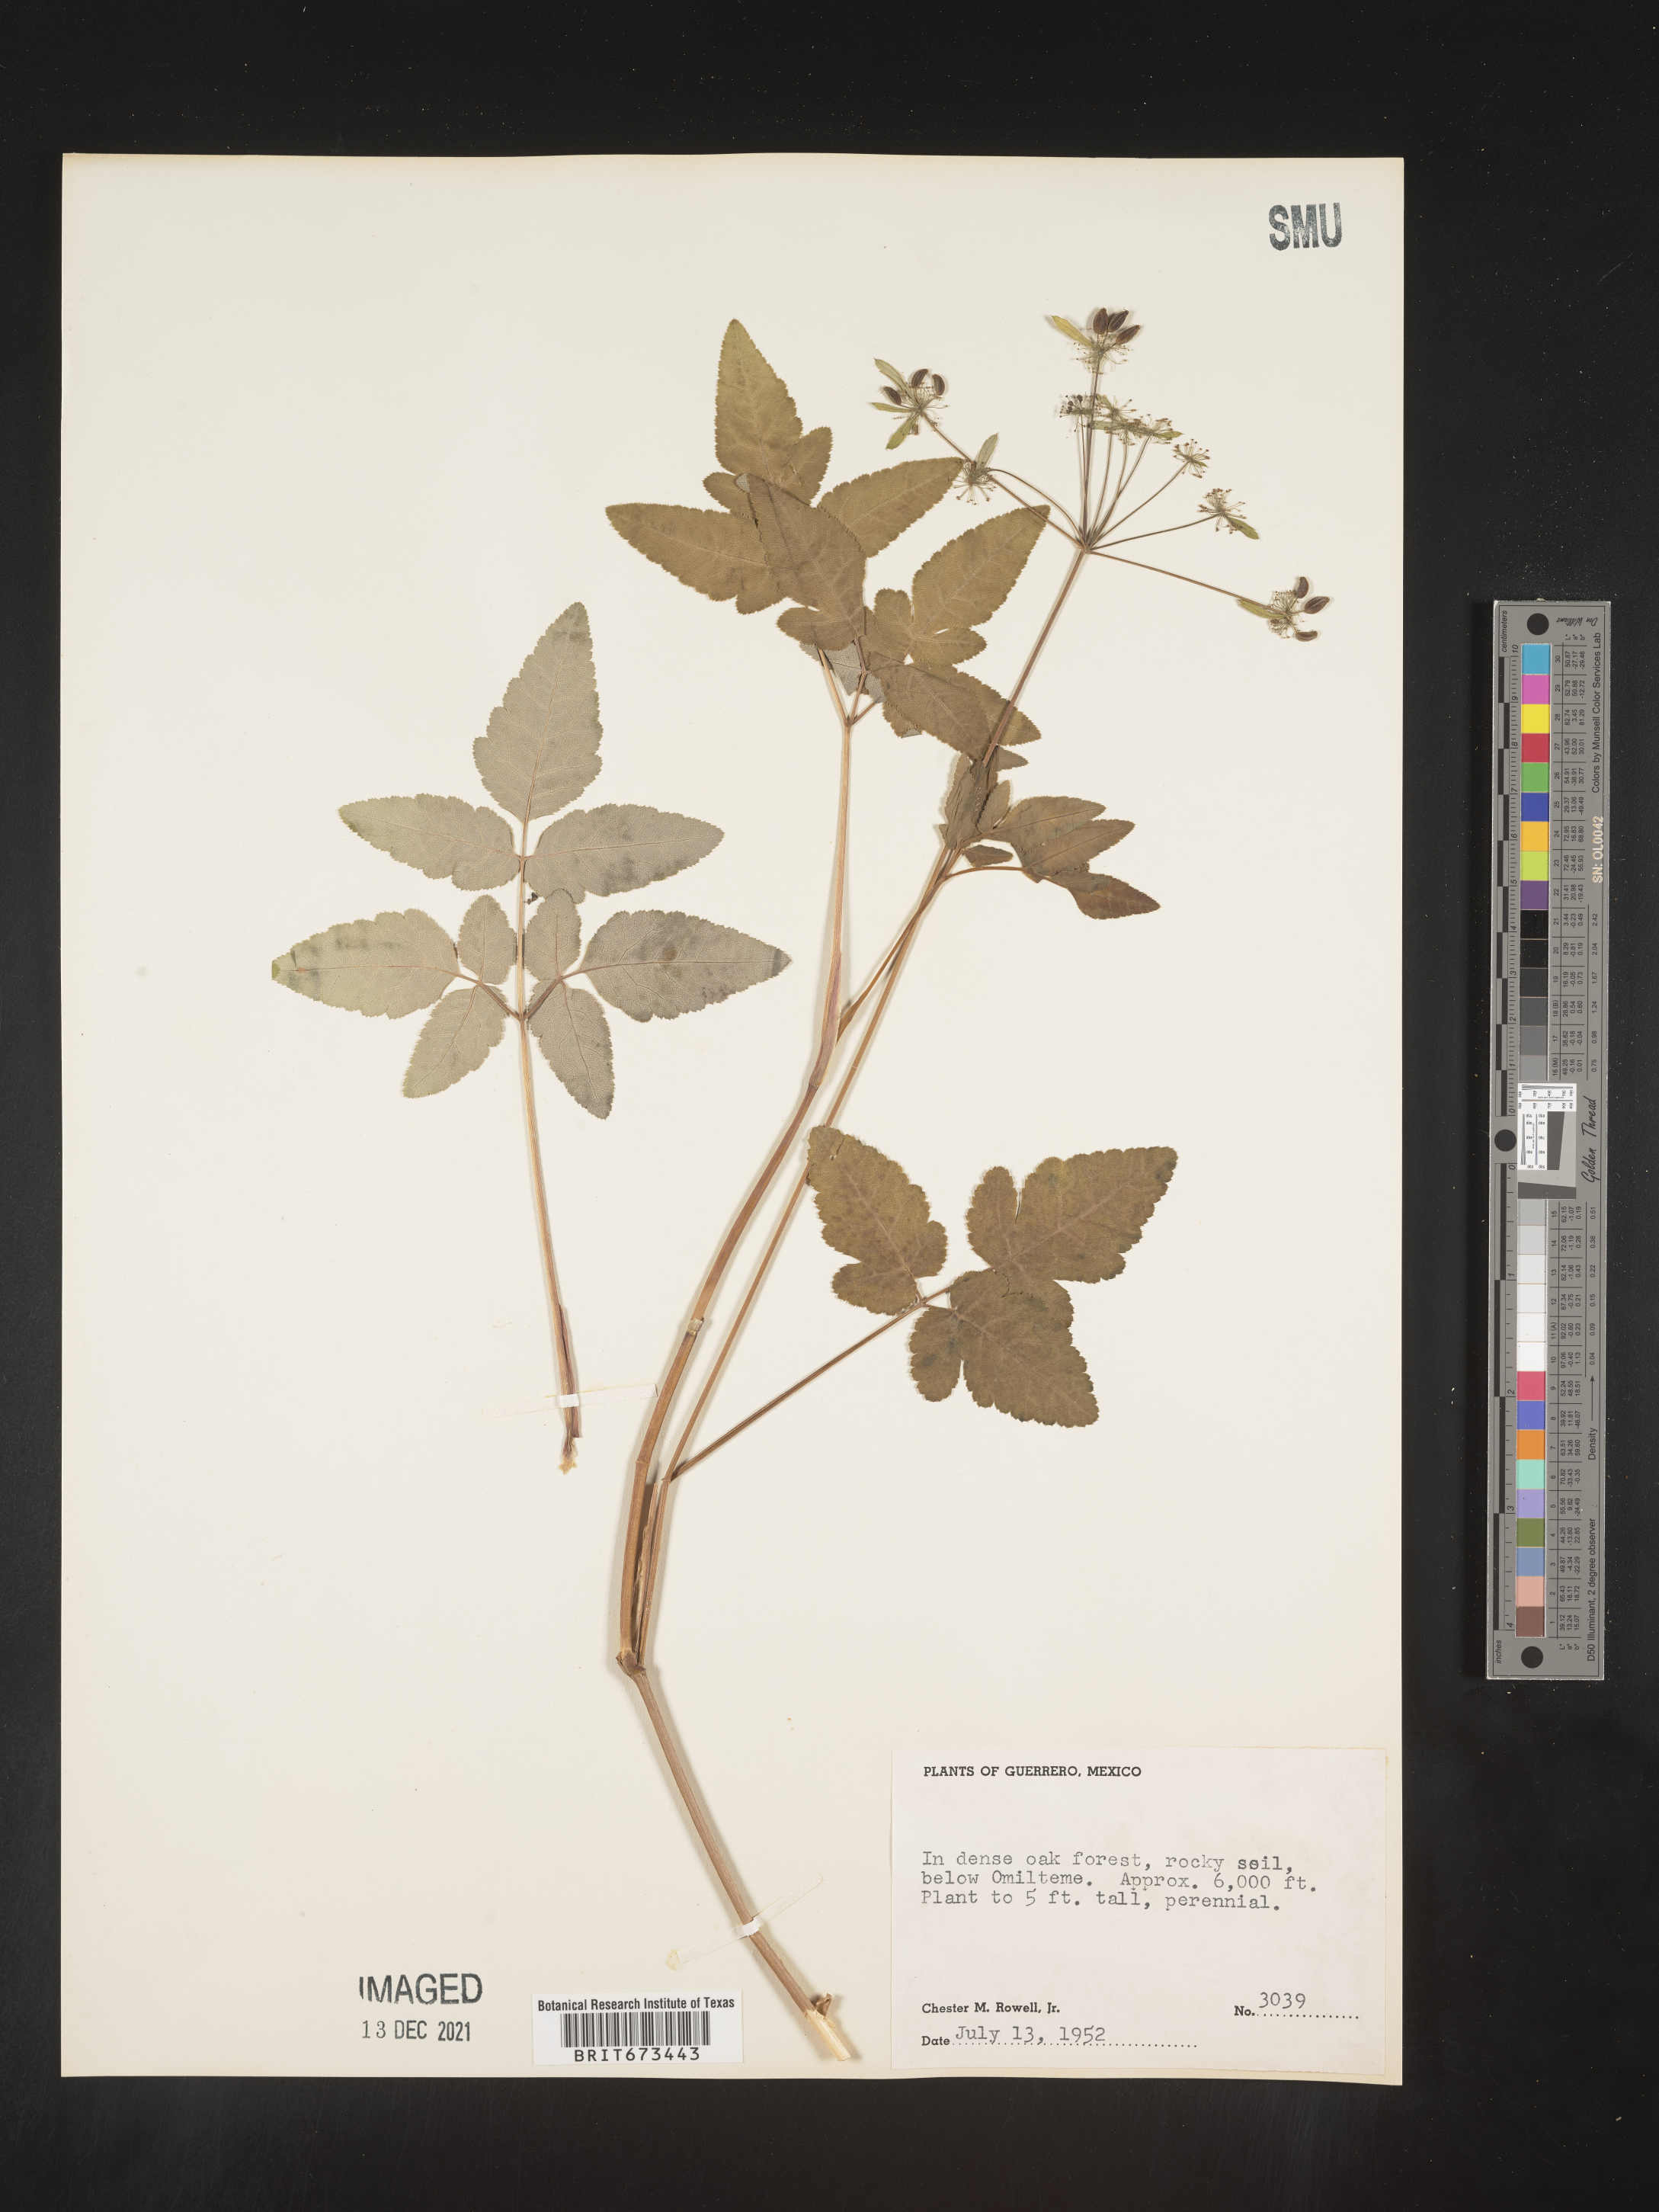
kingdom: Plantae
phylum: Tracheophyta
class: Magnoliopsida
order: Apiales
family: Apiaceae
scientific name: Apiaceae
